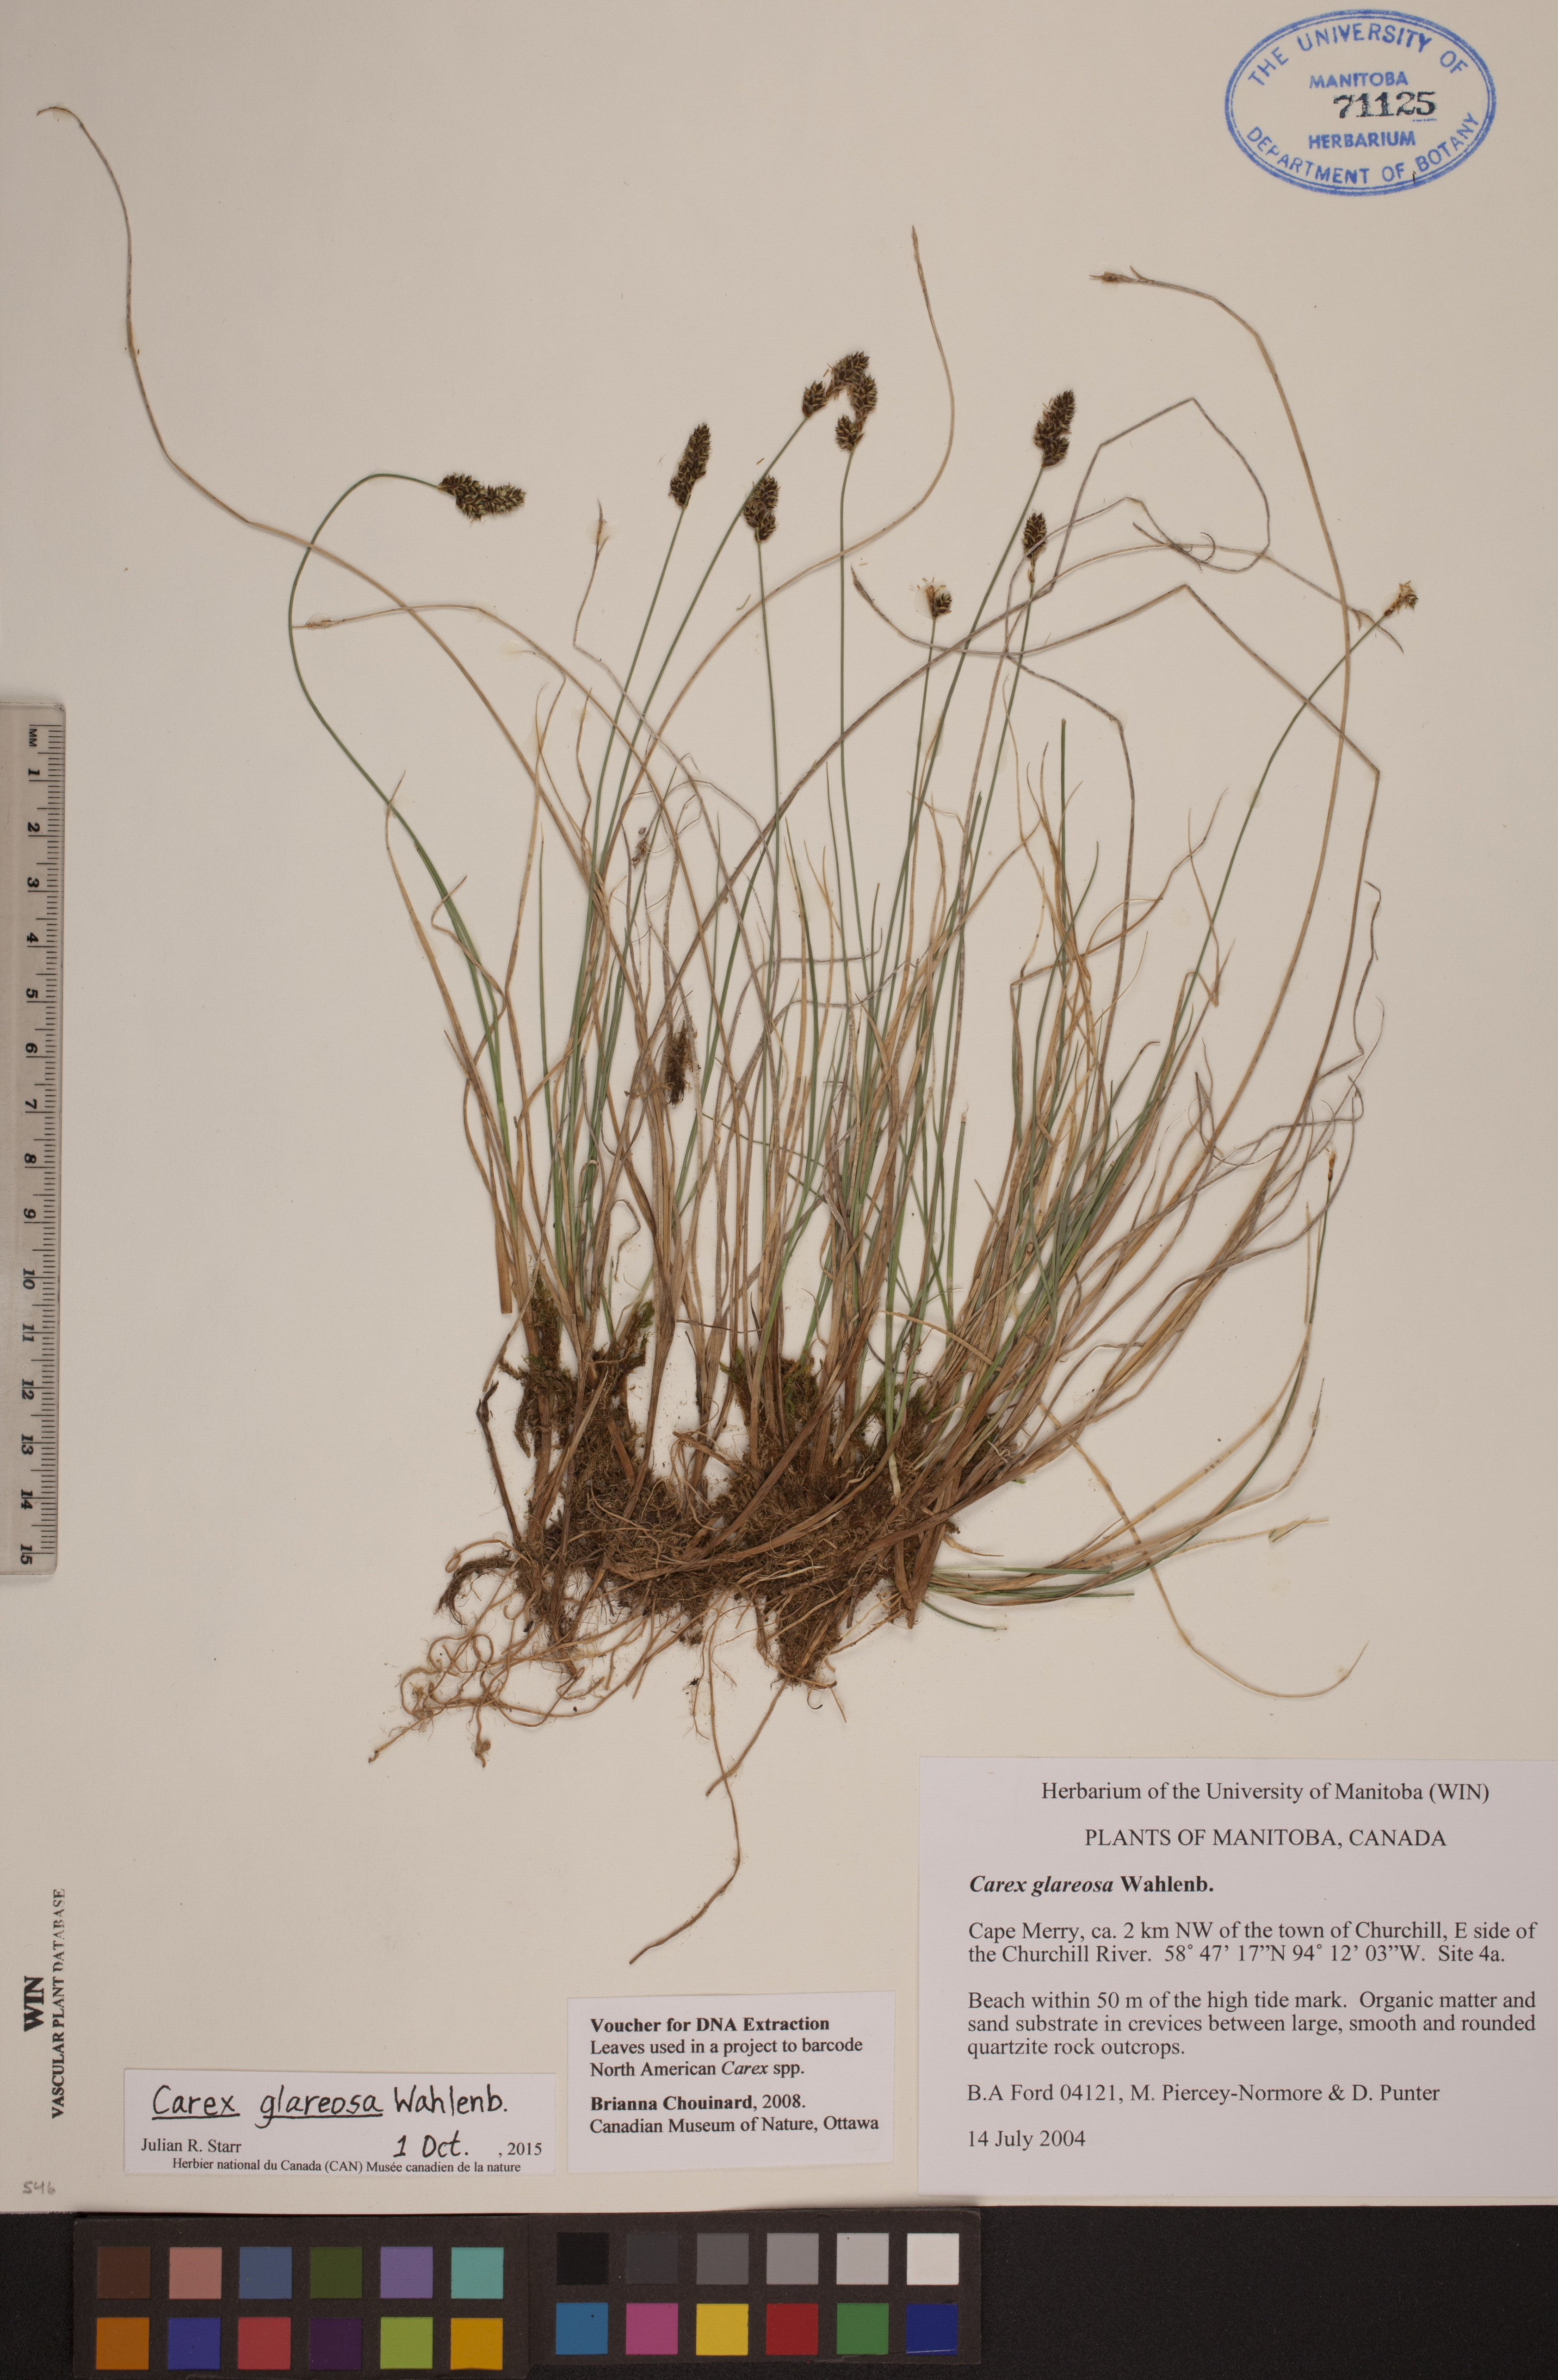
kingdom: Plantae
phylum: Tracheophyta
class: Liliopsida
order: Poales
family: Cyperaceae
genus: Carex
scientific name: Carex glareosa
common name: Clustered sedge
